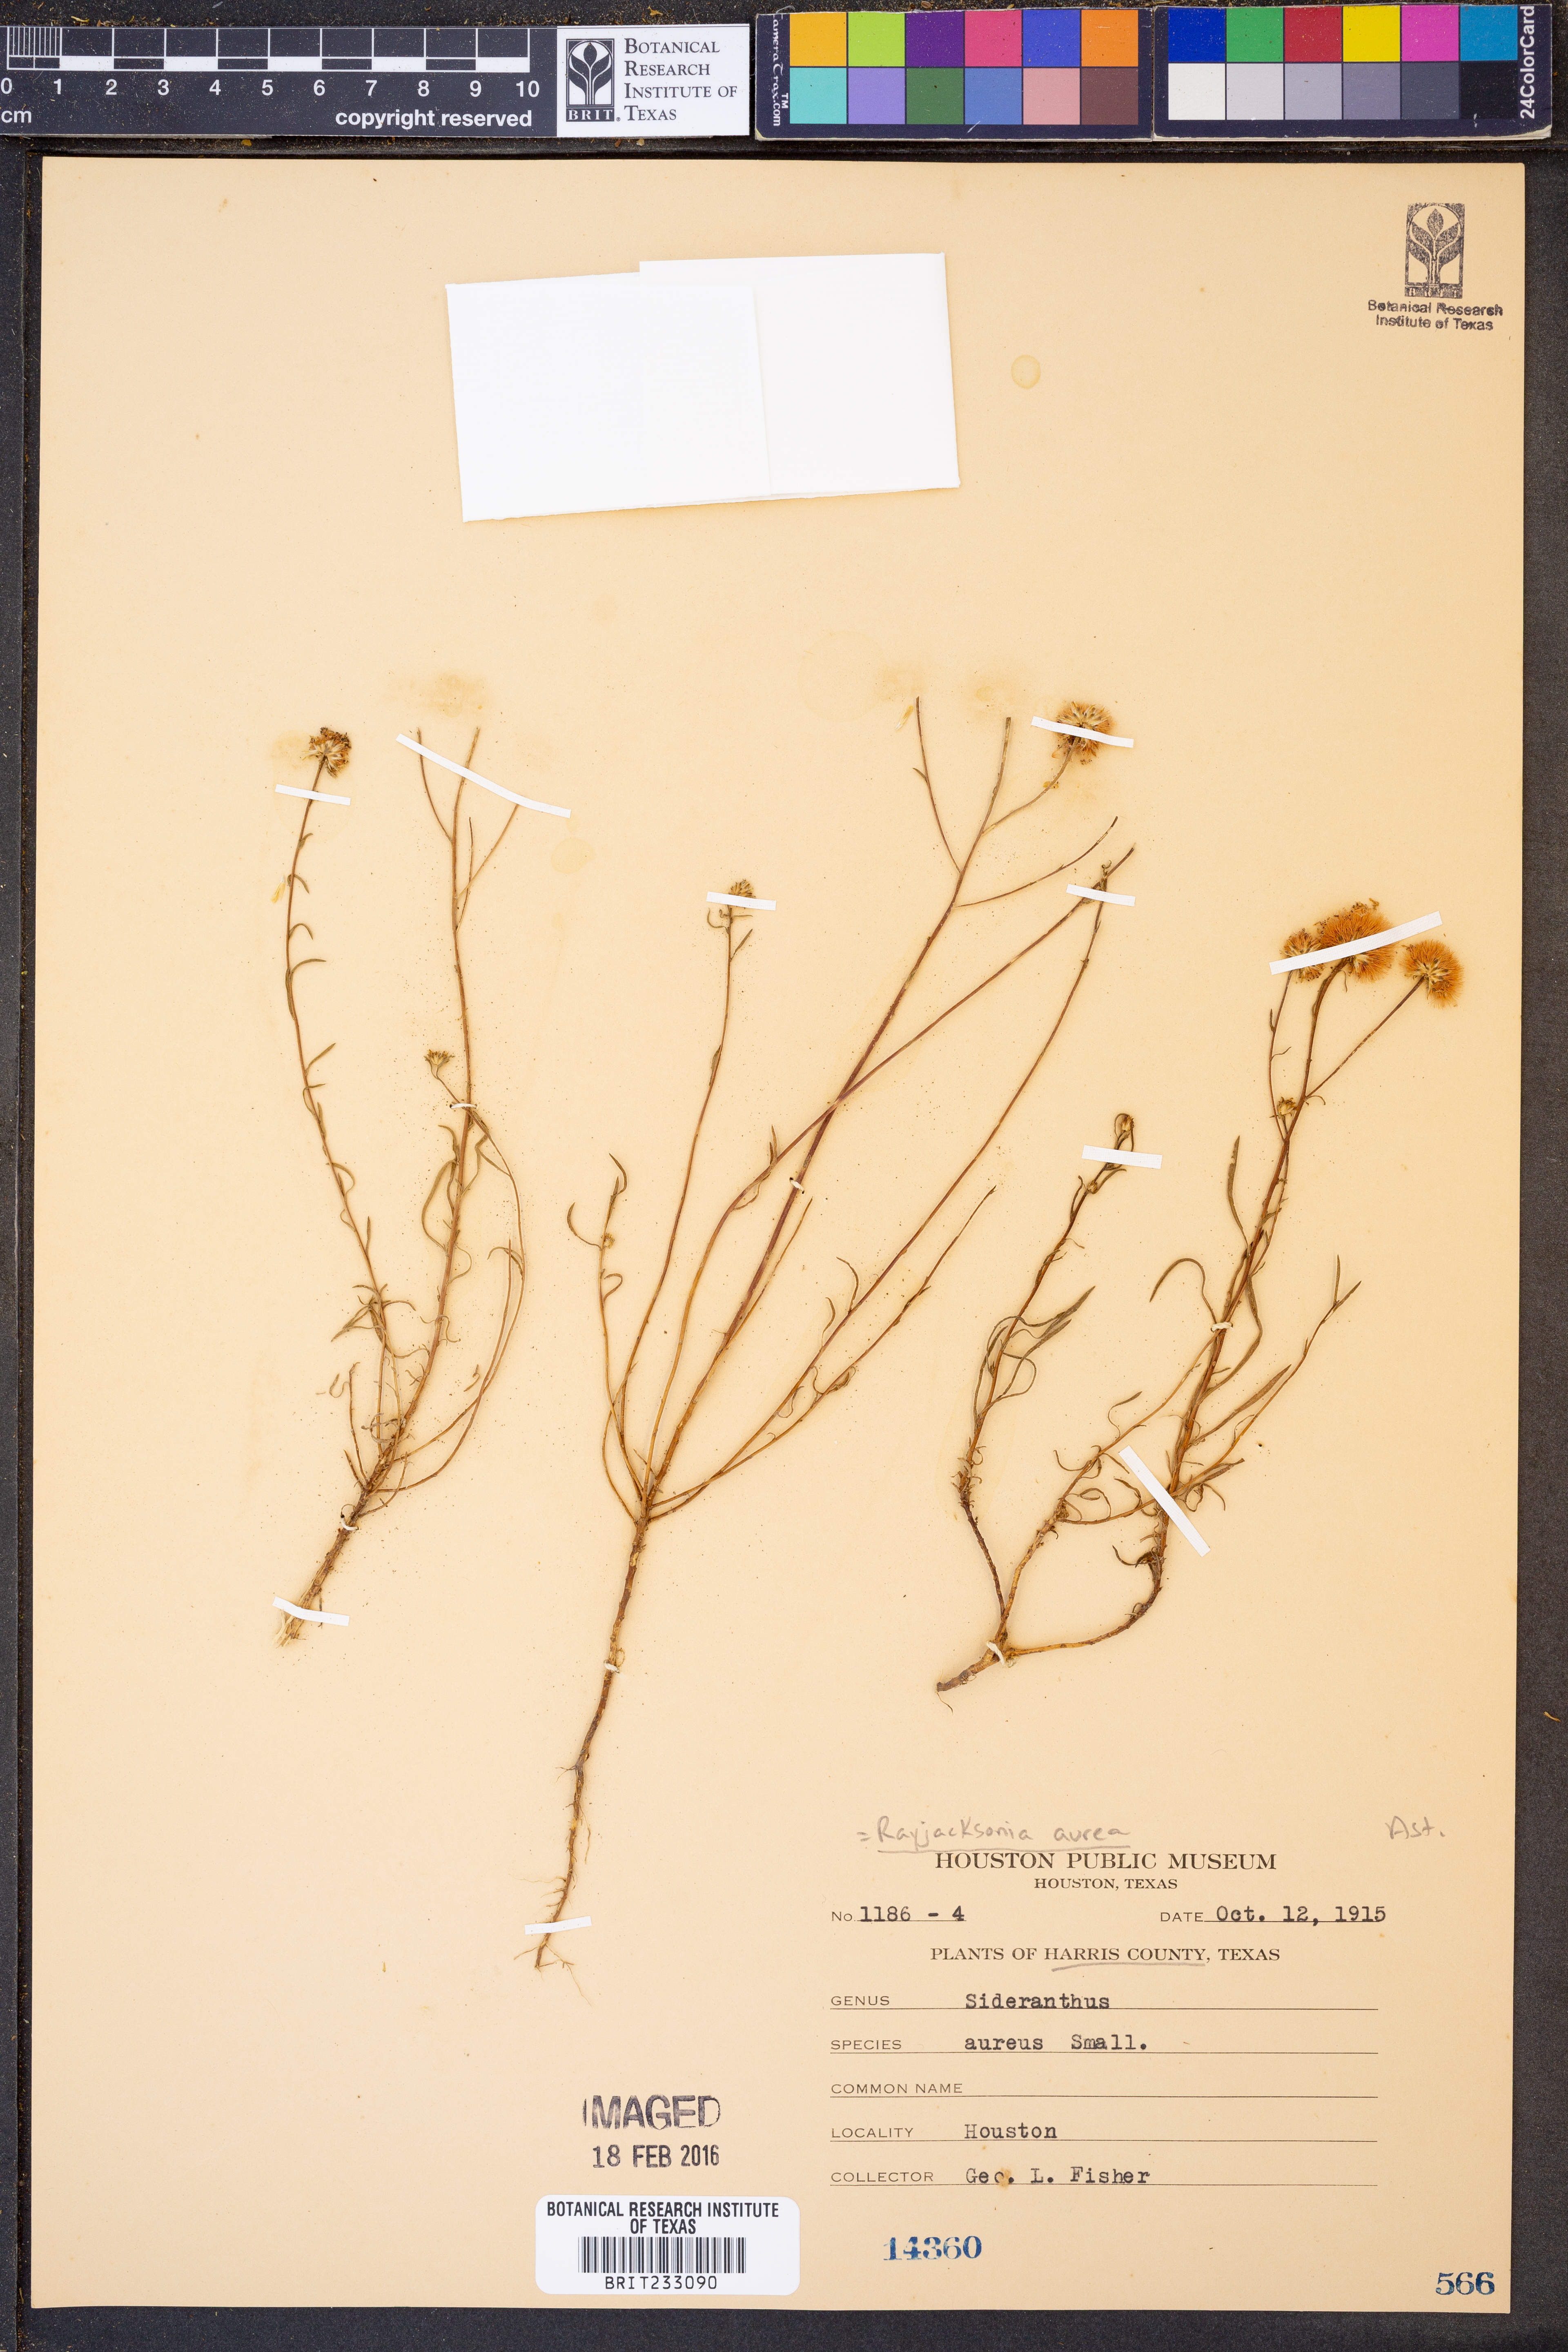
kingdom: Plantae
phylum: Tracheophyta
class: Magnoliopsida
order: Asterales
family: Asteraceae
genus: Rayjacksonia
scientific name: Rayjacksonia aurea
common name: Houston camphor daisy
